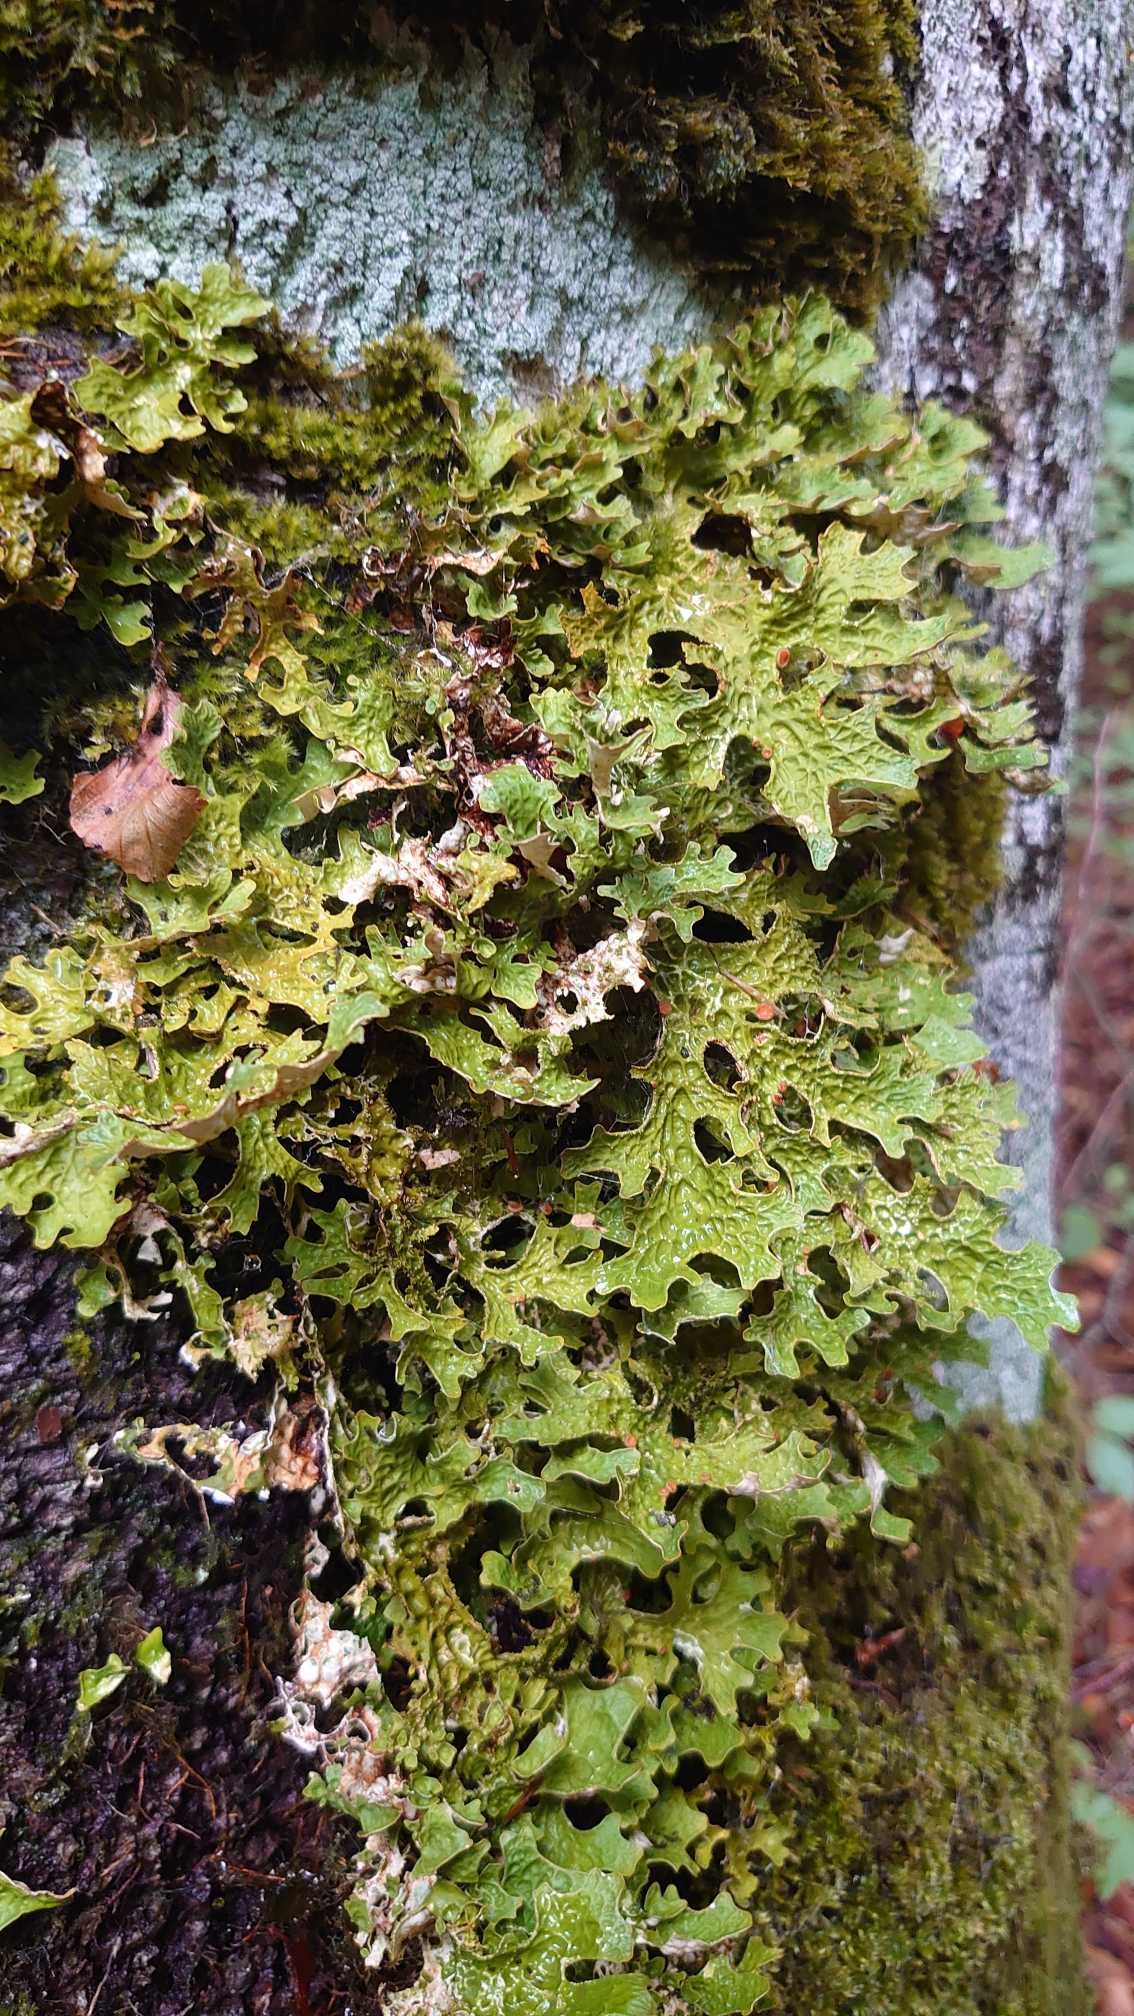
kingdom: Fungi
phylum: Ascomycota
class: Lecanoromycetes
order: Peltigerales
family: Lobariaceae
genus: Lobaria
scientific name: Lobaria pulmonaria
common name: Almindelig lungelav
